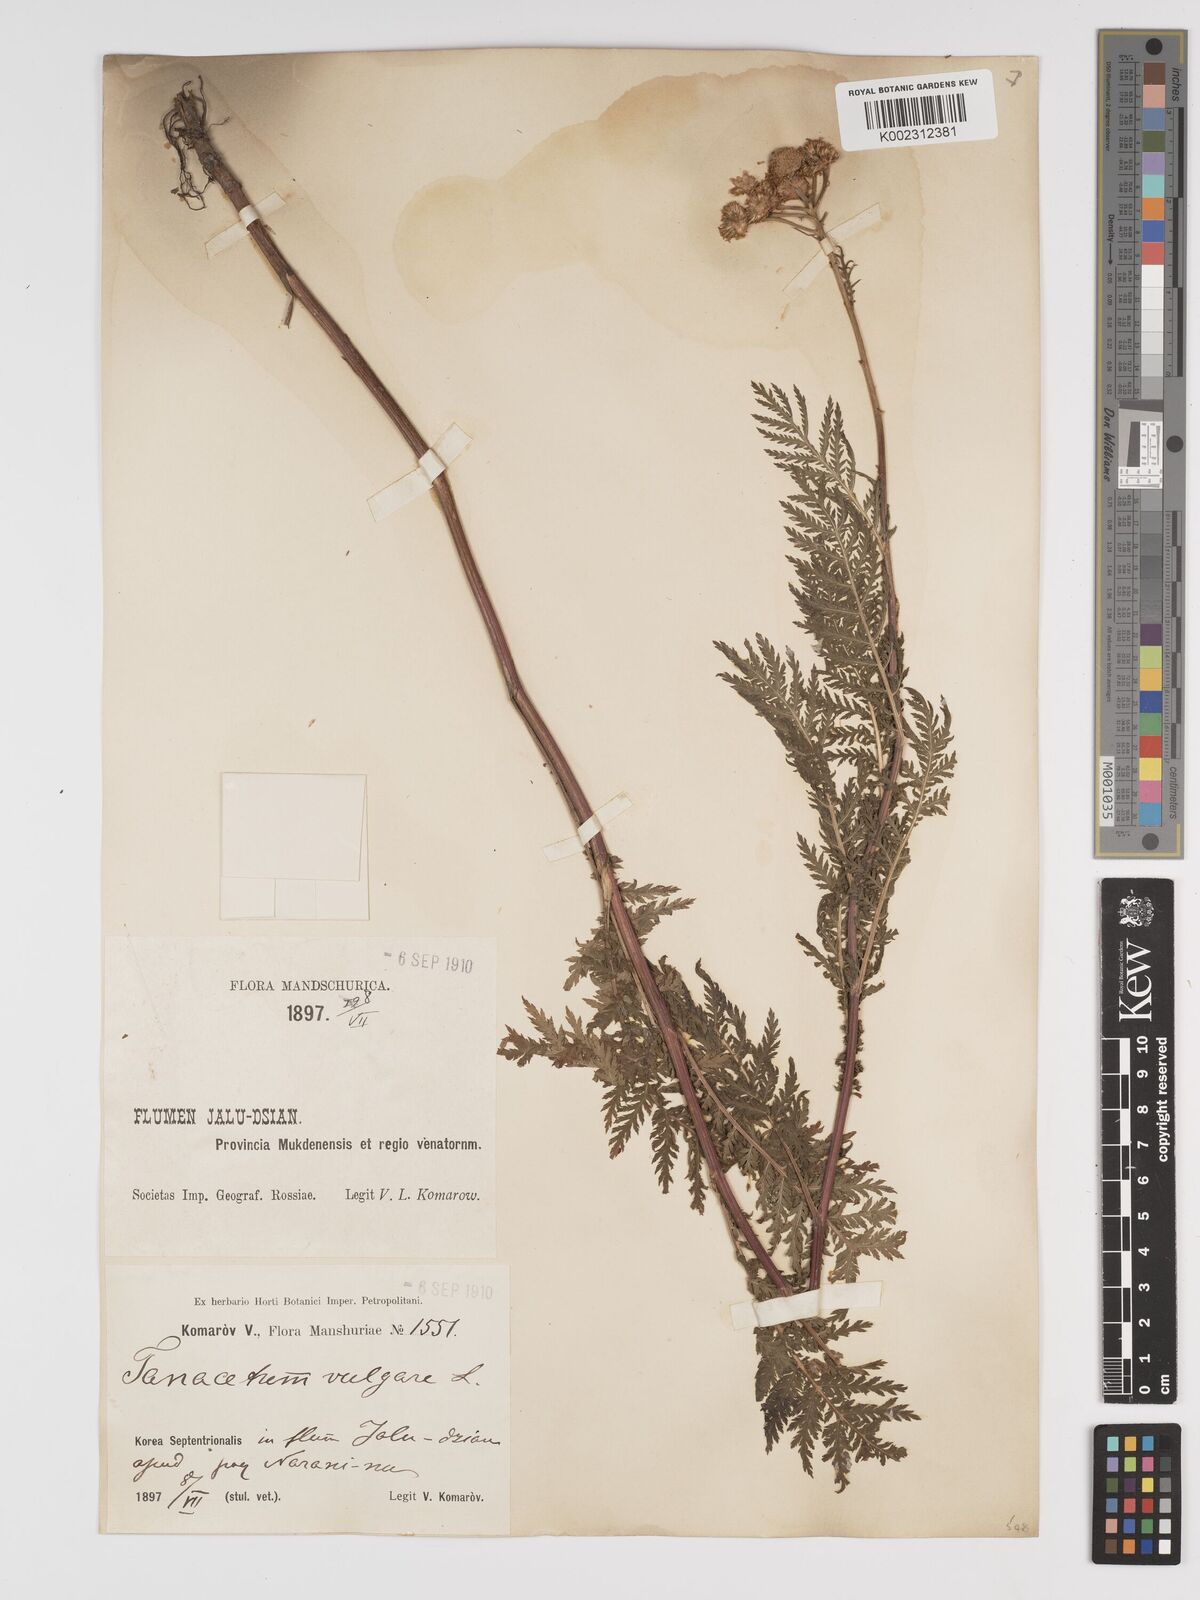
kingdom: Plantae
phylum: Tracheophyta
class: Magnoliopsida
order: Asterales
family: Asteraceae
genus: Tanacetum
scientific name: Tanacetum vulgare
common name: Common tansy
